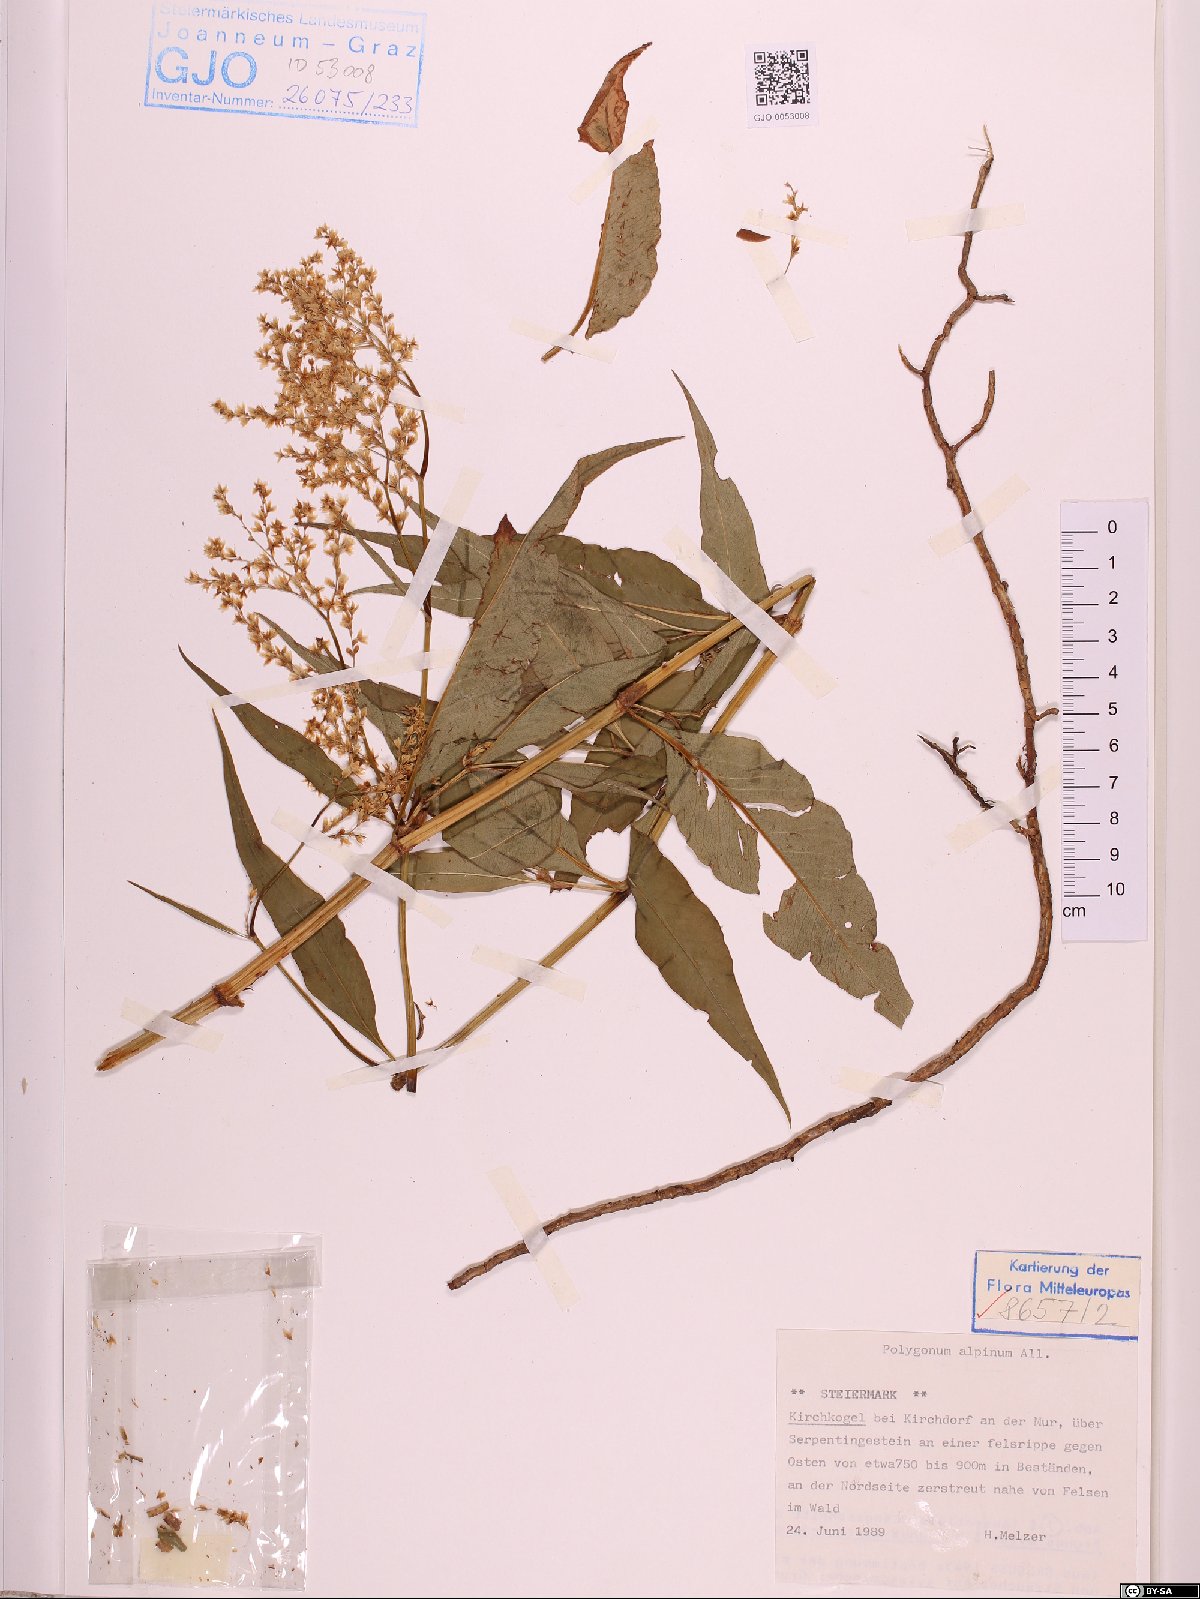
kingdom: Plantae
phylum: Tracheophyta
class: Magnoliopsida
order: Caryophyllales
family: Polygonaceae
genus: Koenigia
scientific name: Koenigia alpina
